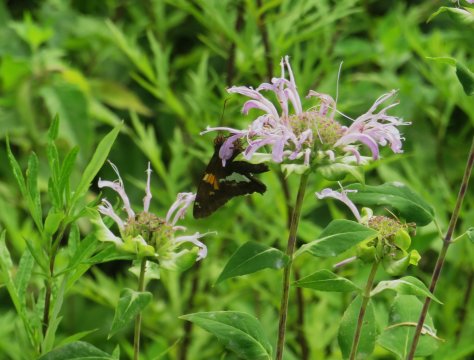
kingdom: Animalia
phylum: Arthropoda
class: Insecta
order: Lepidoptera
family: Hesperiidae
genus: Epargyreus
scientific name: Epargyreus clarus
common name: Silver-spotted Skipper
